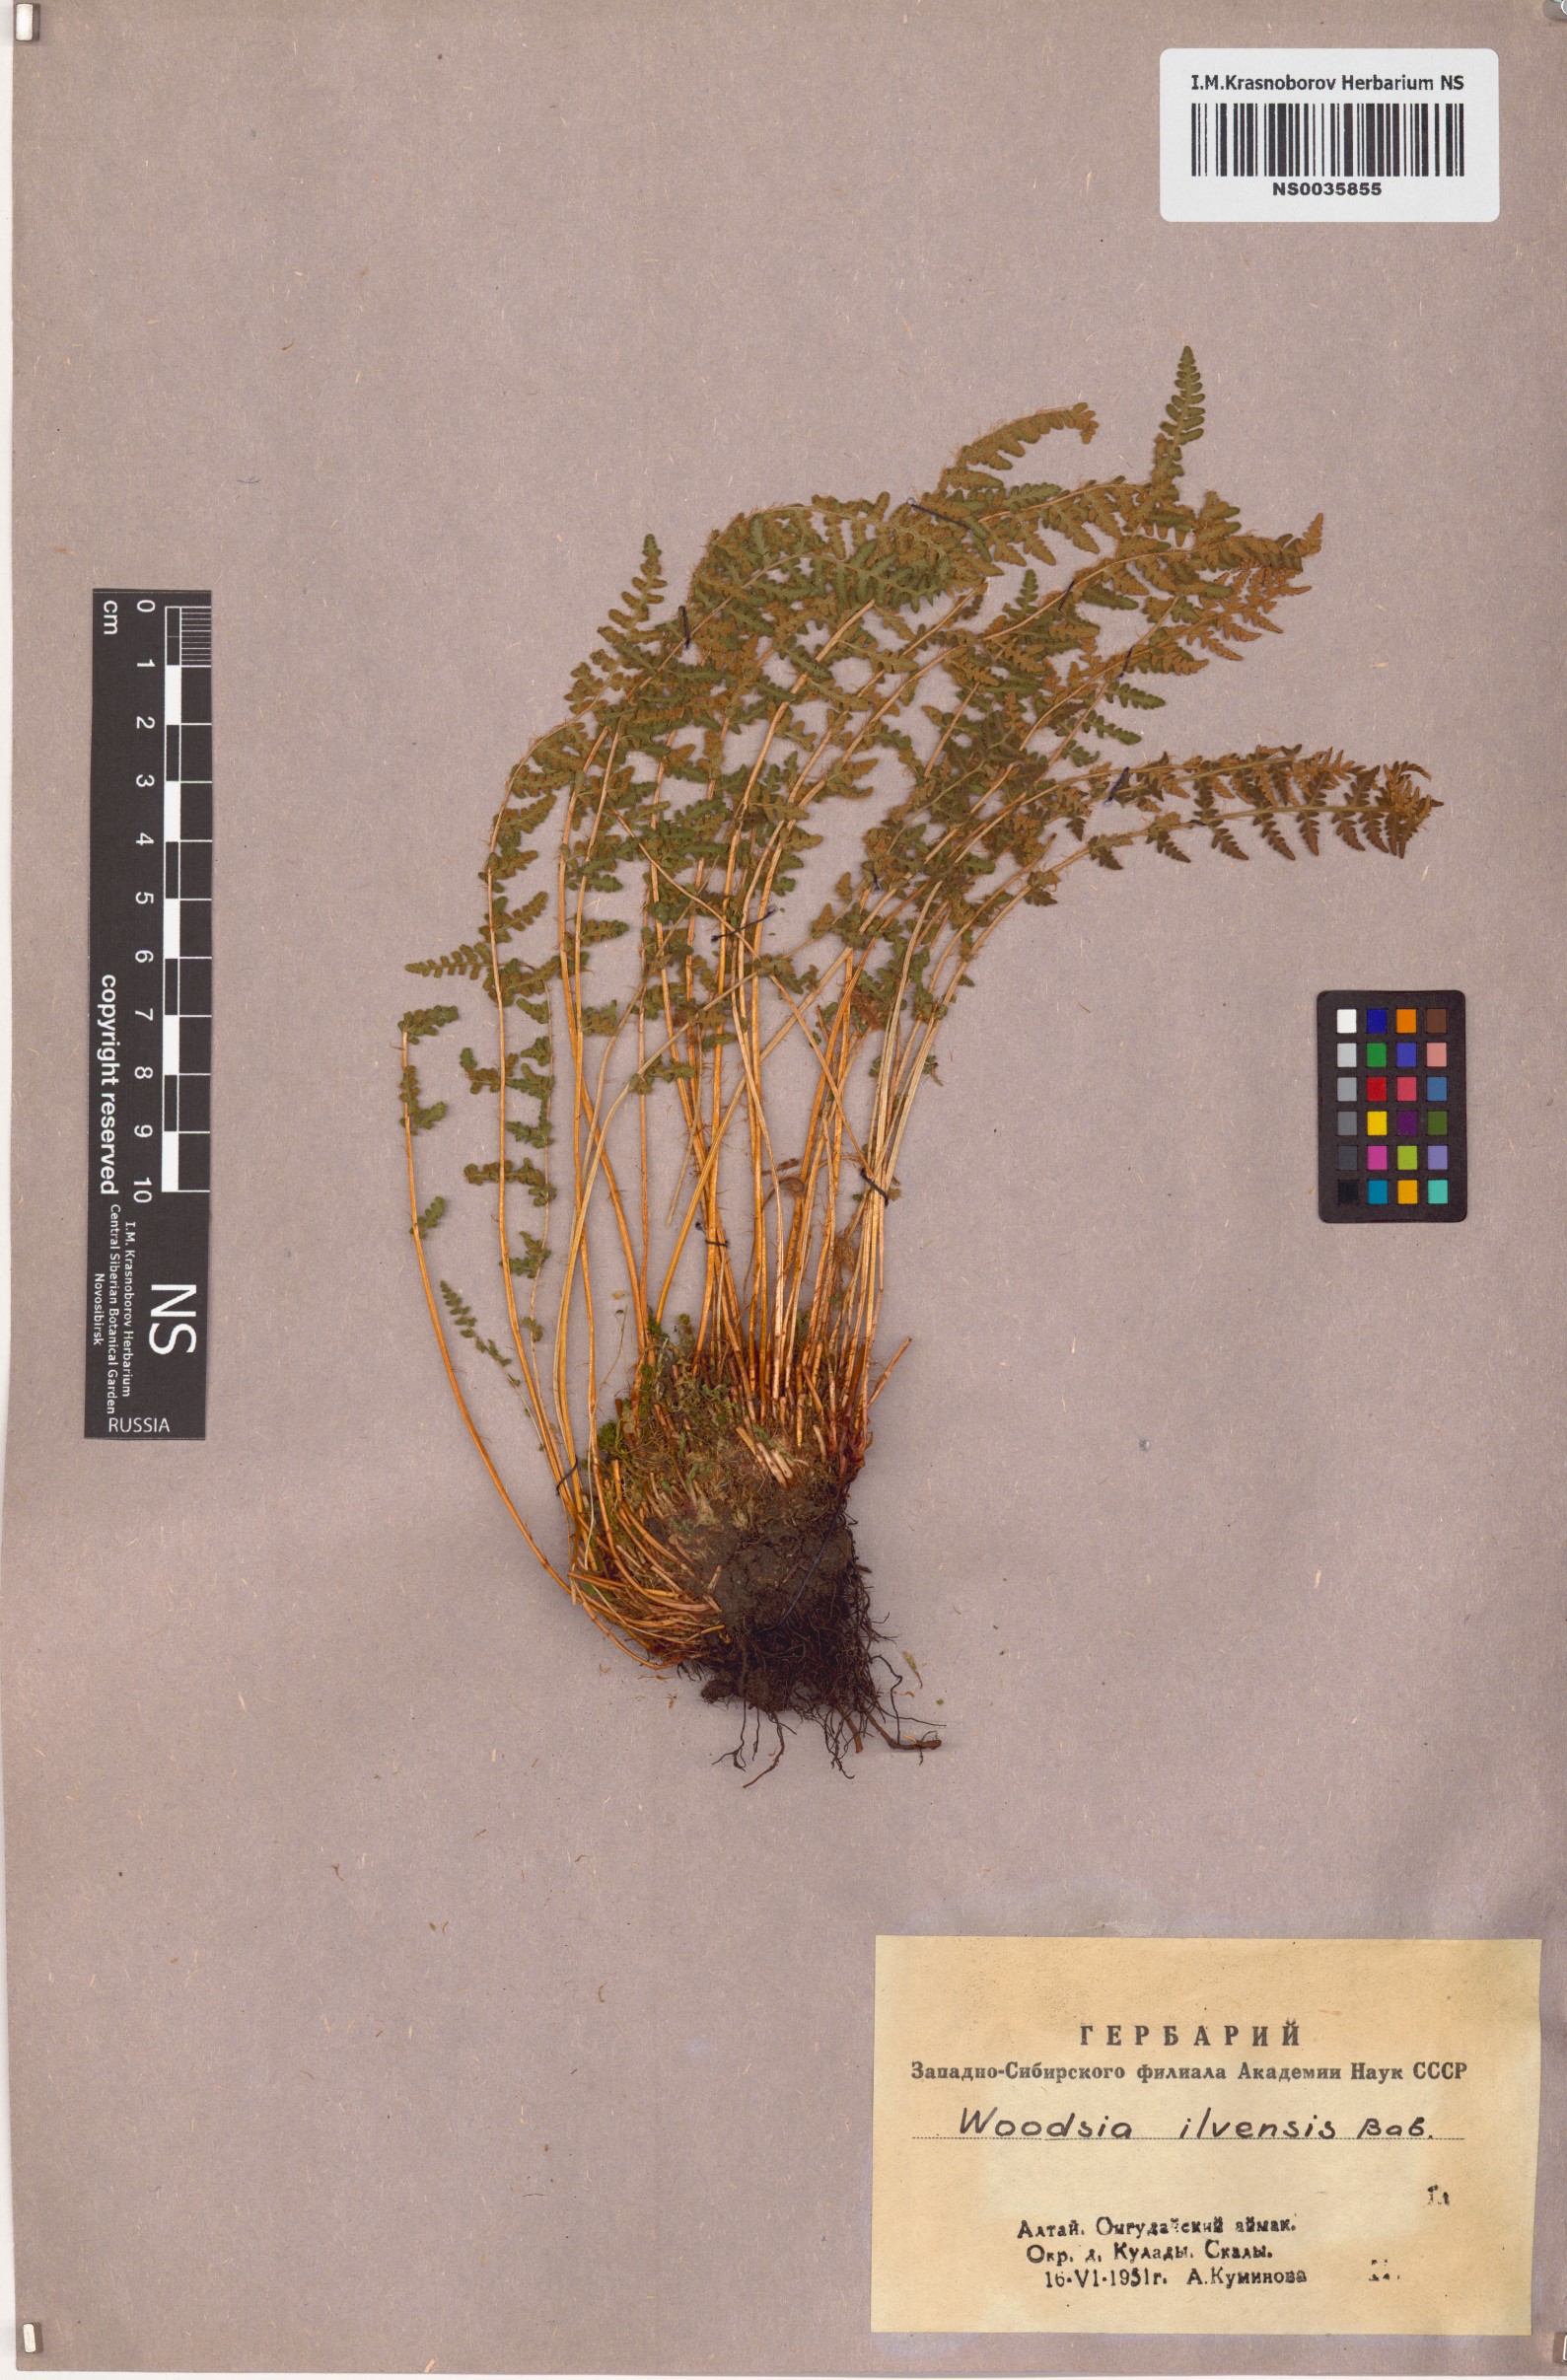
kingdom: Plantae
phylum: Tracheophyta
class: Polypodiopsida
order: Polypodiales
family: Woodsiaceae
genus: Woodsia
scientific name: Woodsia ilvensis
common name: Fragrant woodsia
